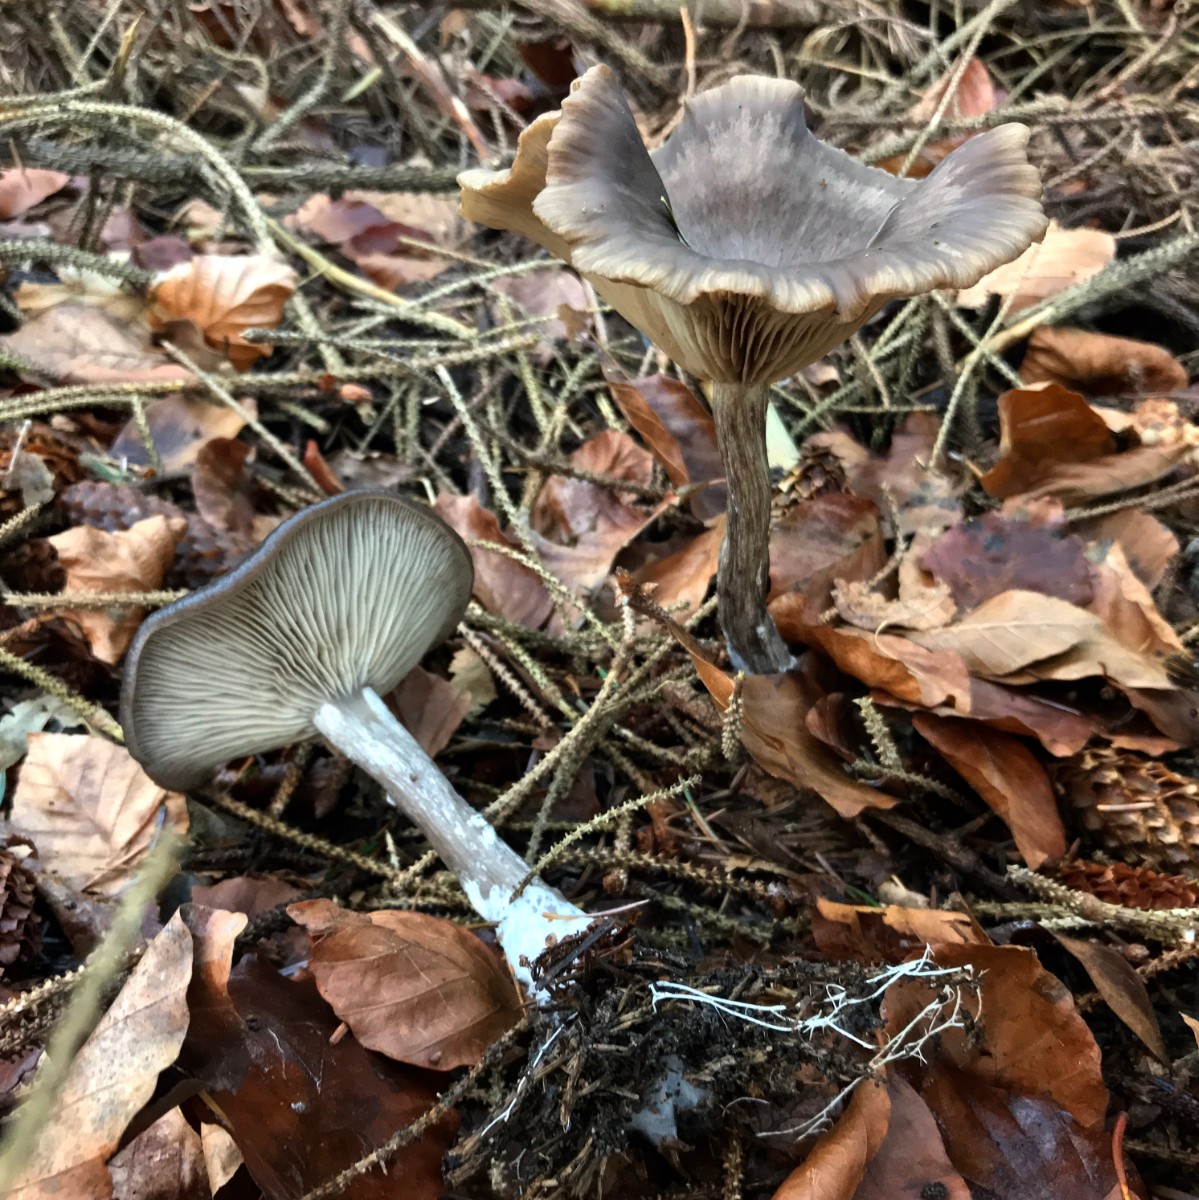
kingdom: Fungi
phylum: Basidiomycota
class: Agaricomycetes
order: Agaricales
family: Pseudoclitocybaceae
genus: Pseudoclitocybe
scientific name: Pseudoclitocybe cyathiformis
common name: almindelig bægertragthat
